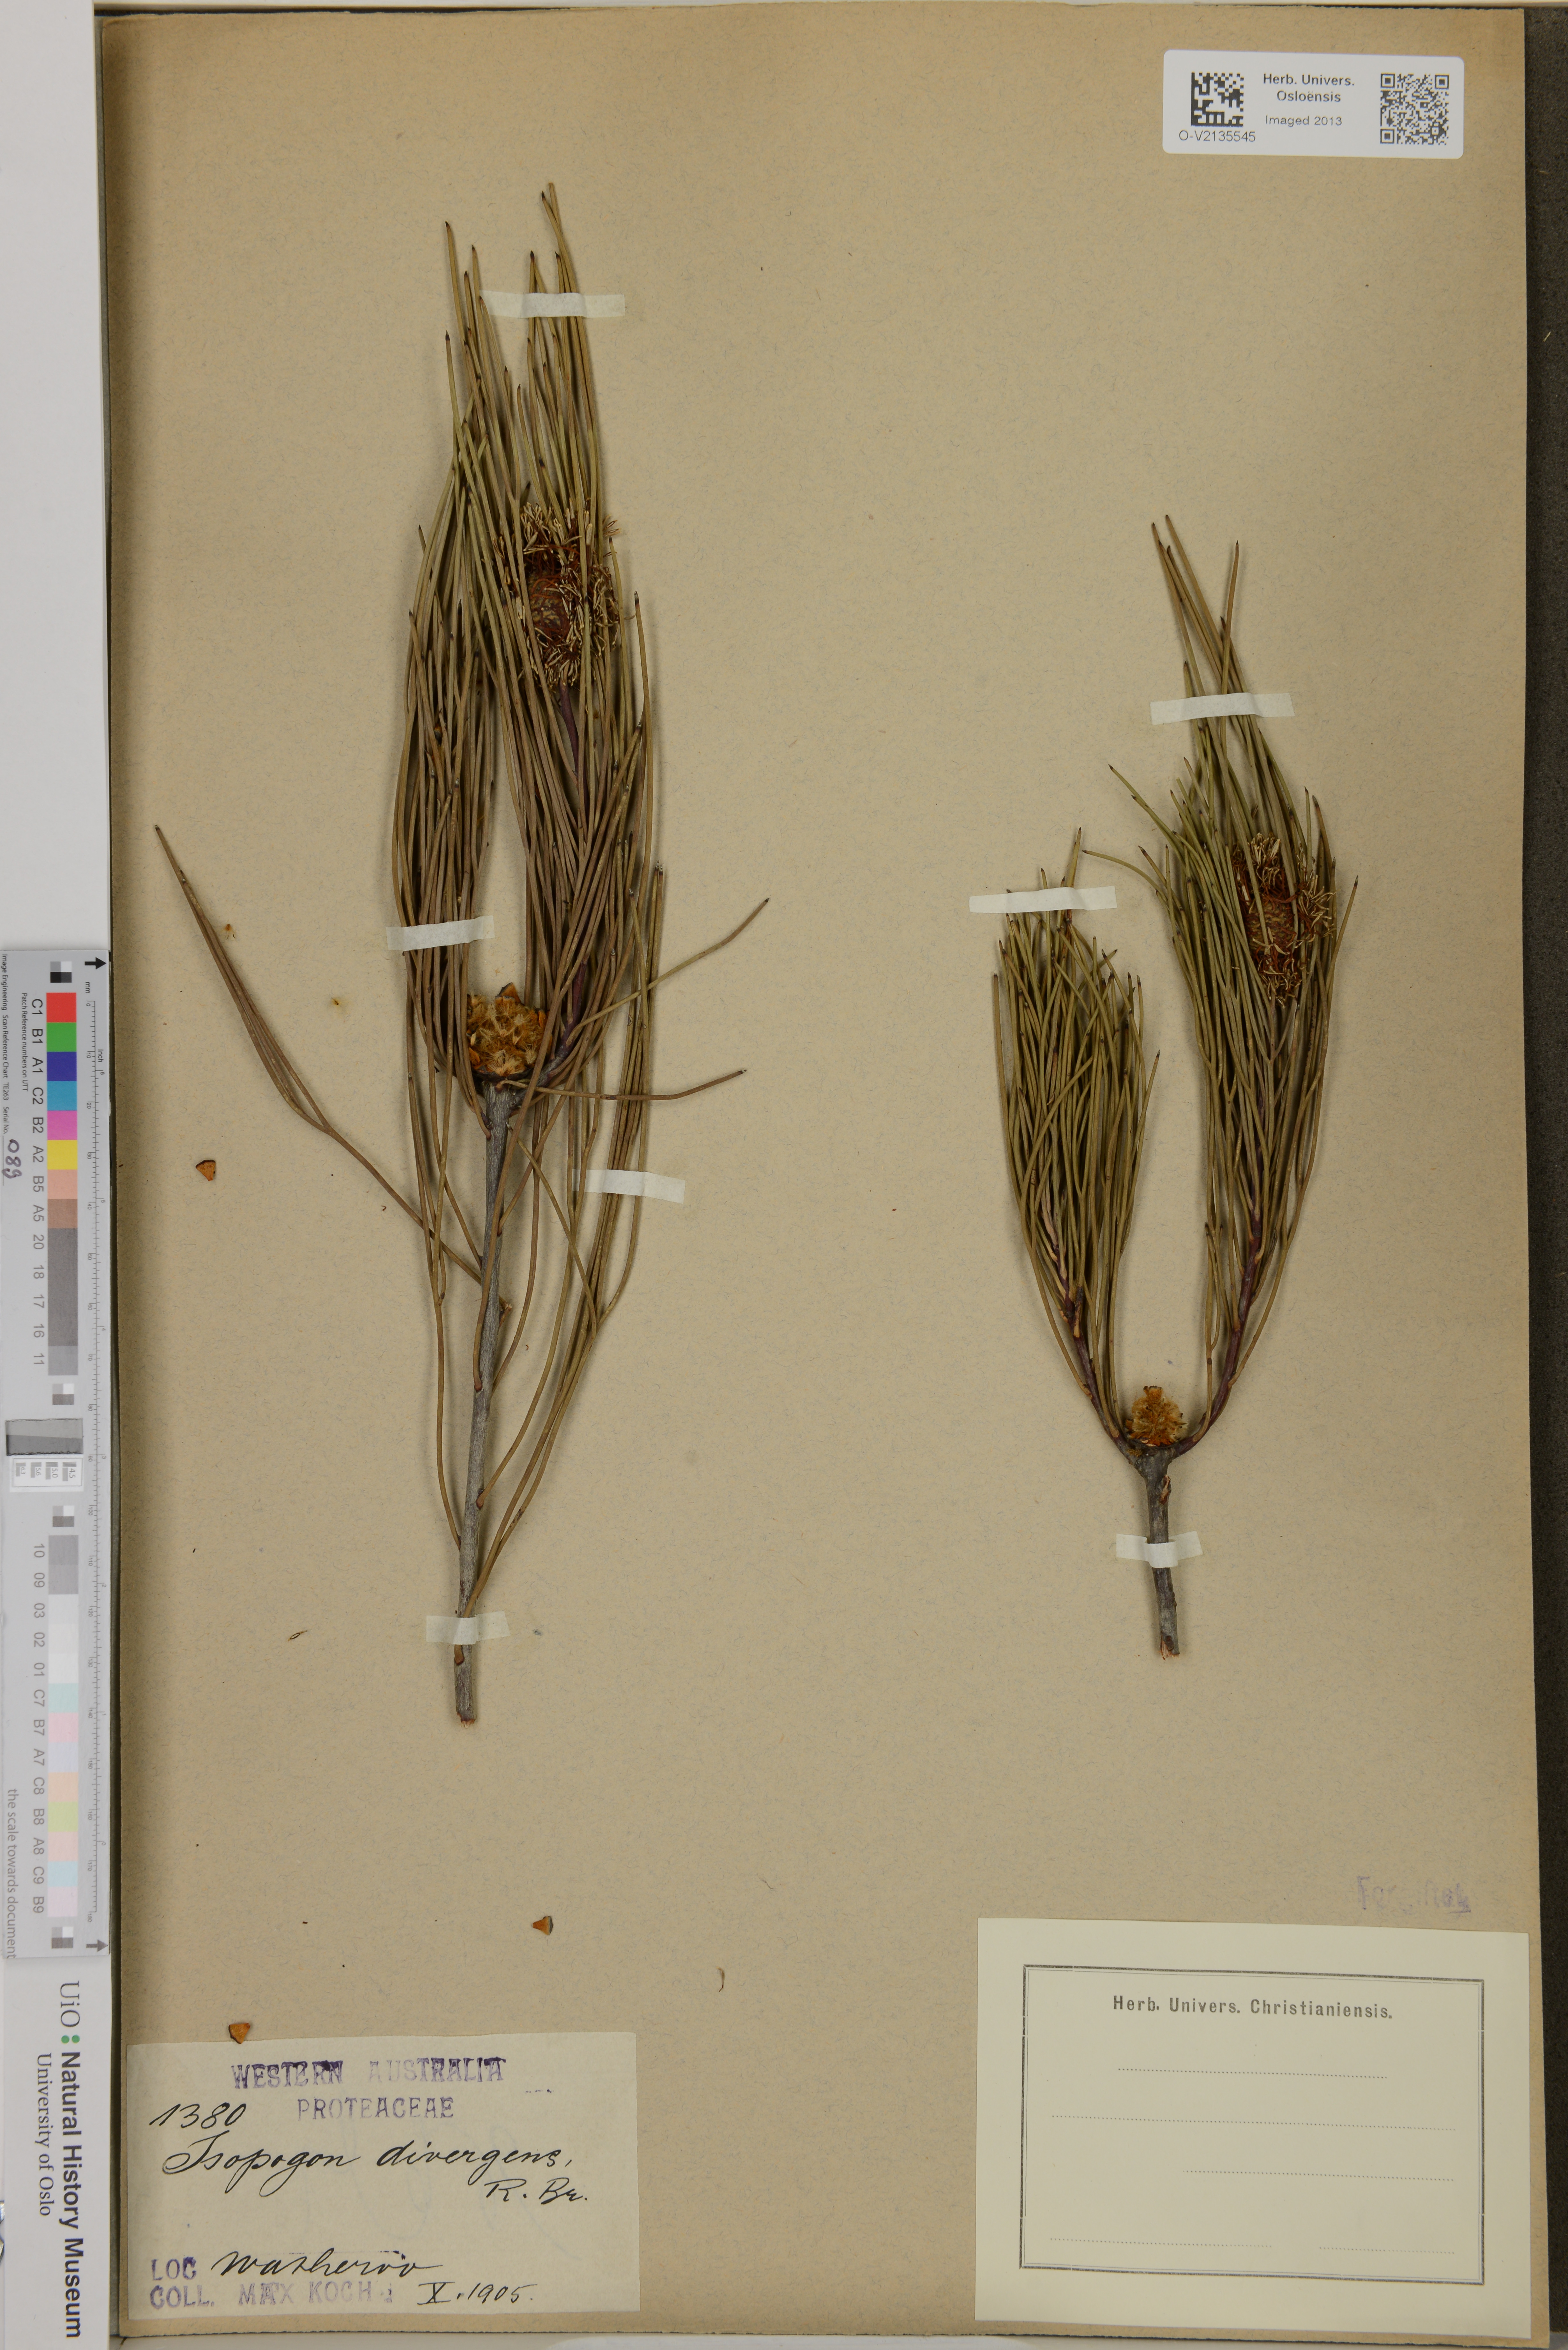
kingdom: Plantae
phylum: Tracheophyta
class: Magnoliopsida
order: Proteales
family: Proteaceae
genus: Isopogon
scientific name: Isopogon divergens
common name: Spreading-coneflower
